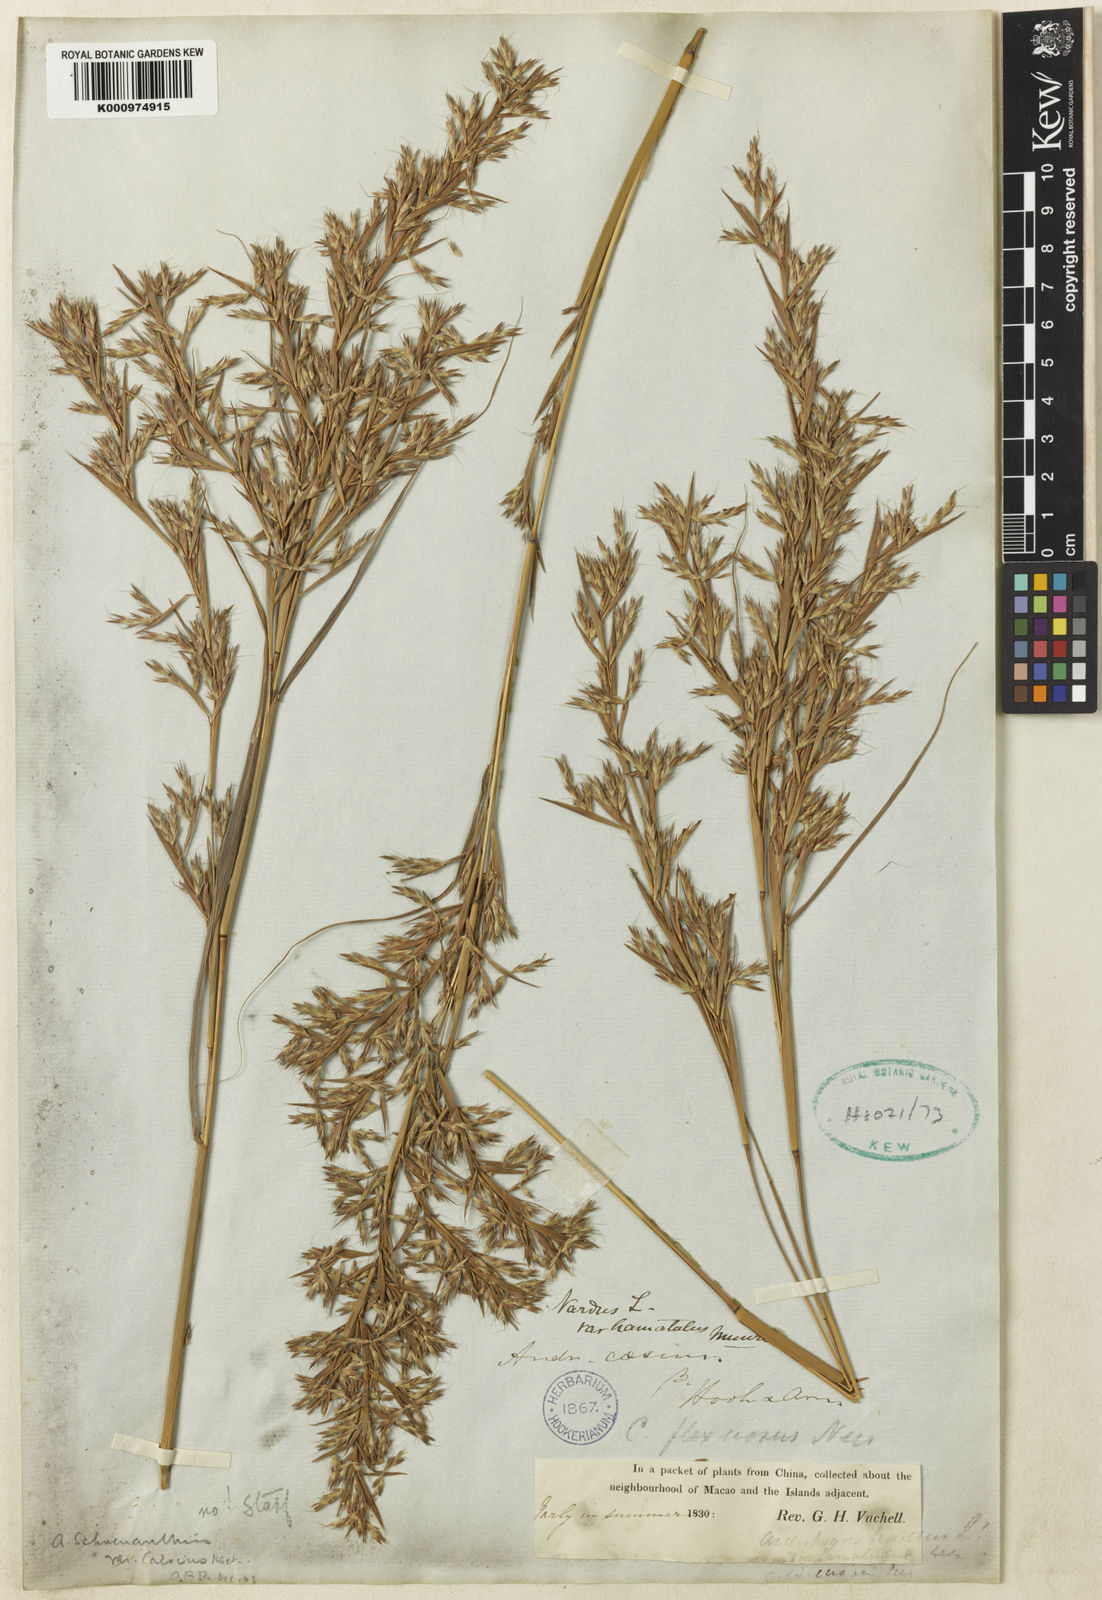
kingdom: Plantae
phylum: Tracheophyta
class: Liliopsida
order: Poales
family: Poaceae
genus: Cymbopogon
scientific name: Cymbopogon tortilis
